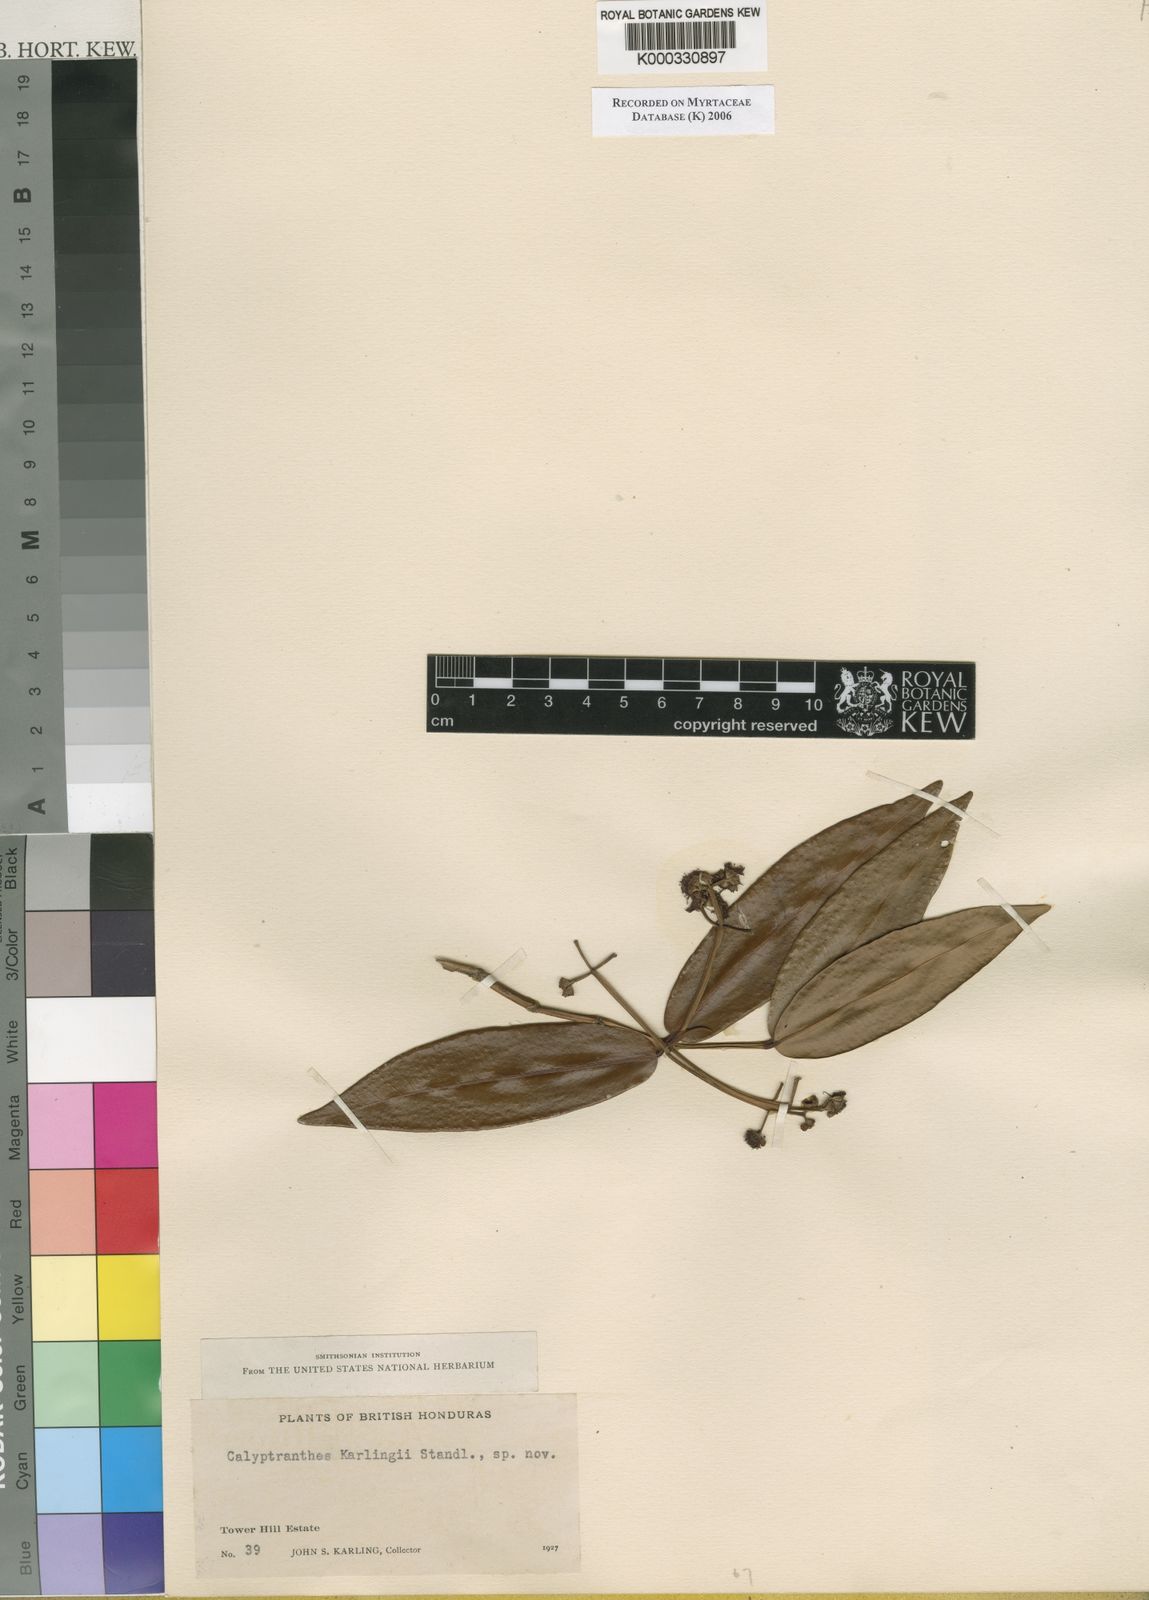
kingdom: Plantae
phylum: Tracheophyta
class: Magnoliopsida
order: Myrtales
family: Myrtaceae
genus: Myrcia
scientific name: Myrcia karlingii
